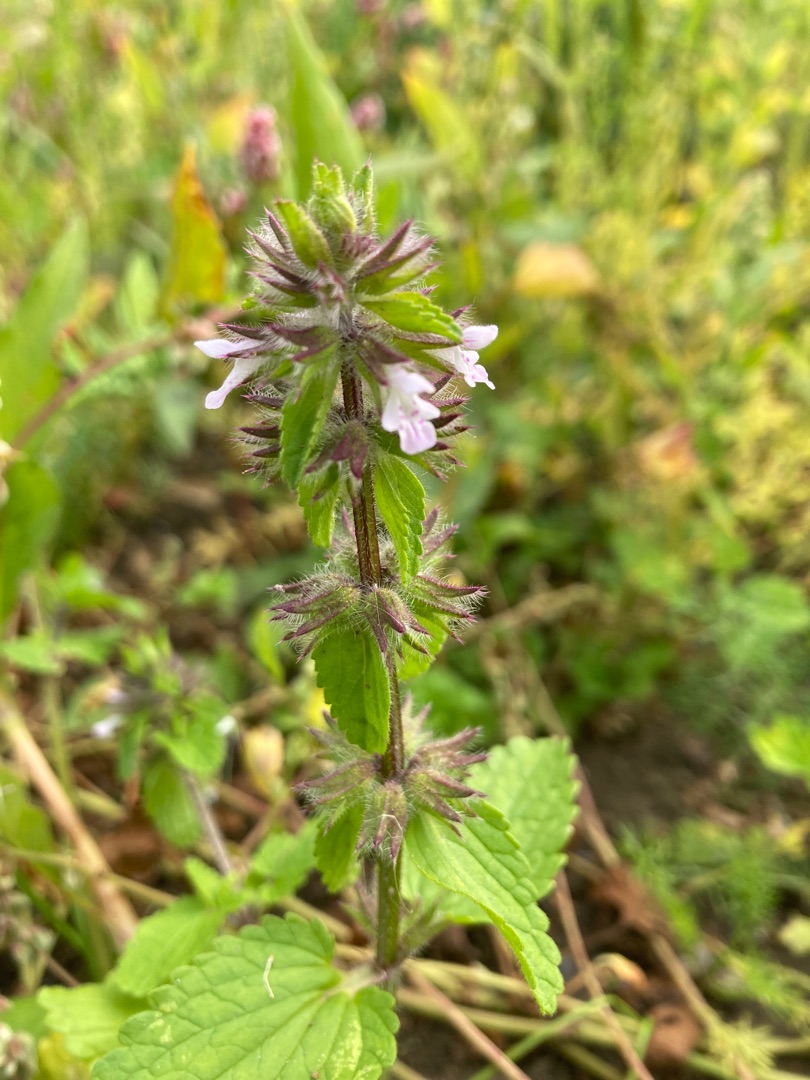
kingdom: Plantae
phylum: Tracheophyta
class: Magnoliopsida
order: Lamiales
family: Lamiaceae
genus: Stachys
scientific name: Stachys arvensis
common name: Ager-galtetand
